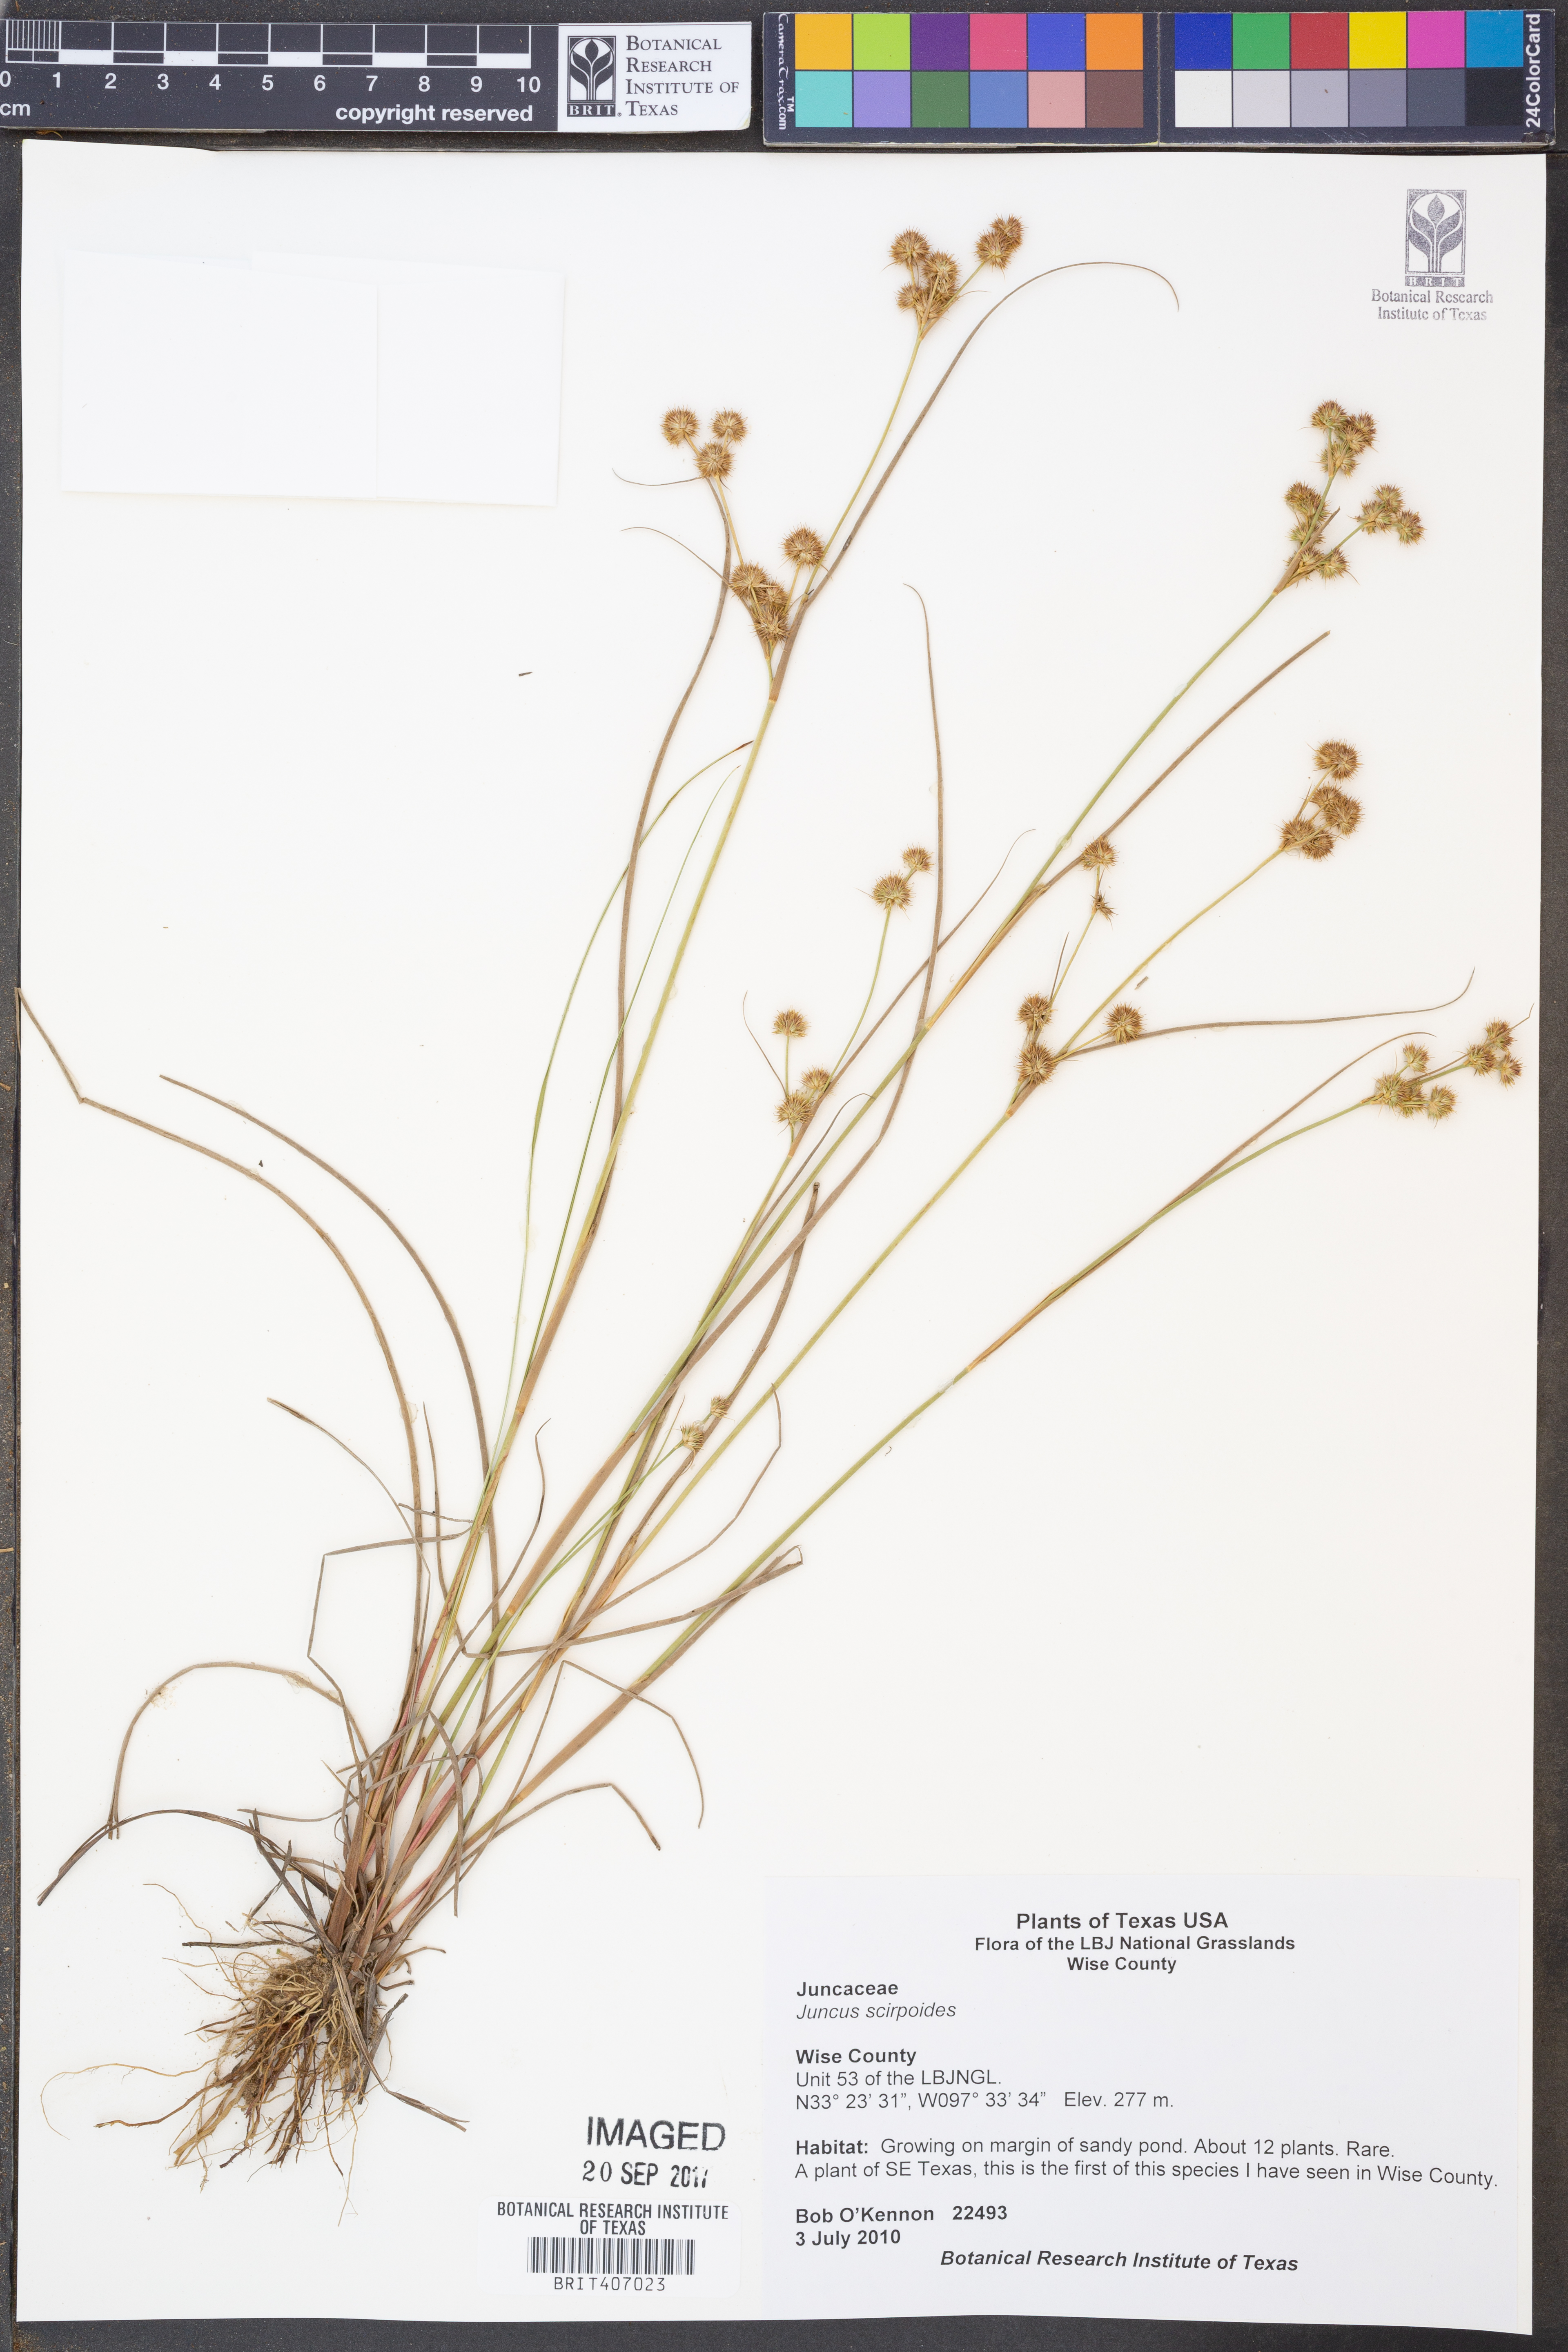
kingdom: Plantae
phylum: Tracheophyta
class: Liliopsida
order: Poales
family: Juncaceae
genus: Juncus
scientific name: Juncus scirpoides
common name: Needlepod rush
